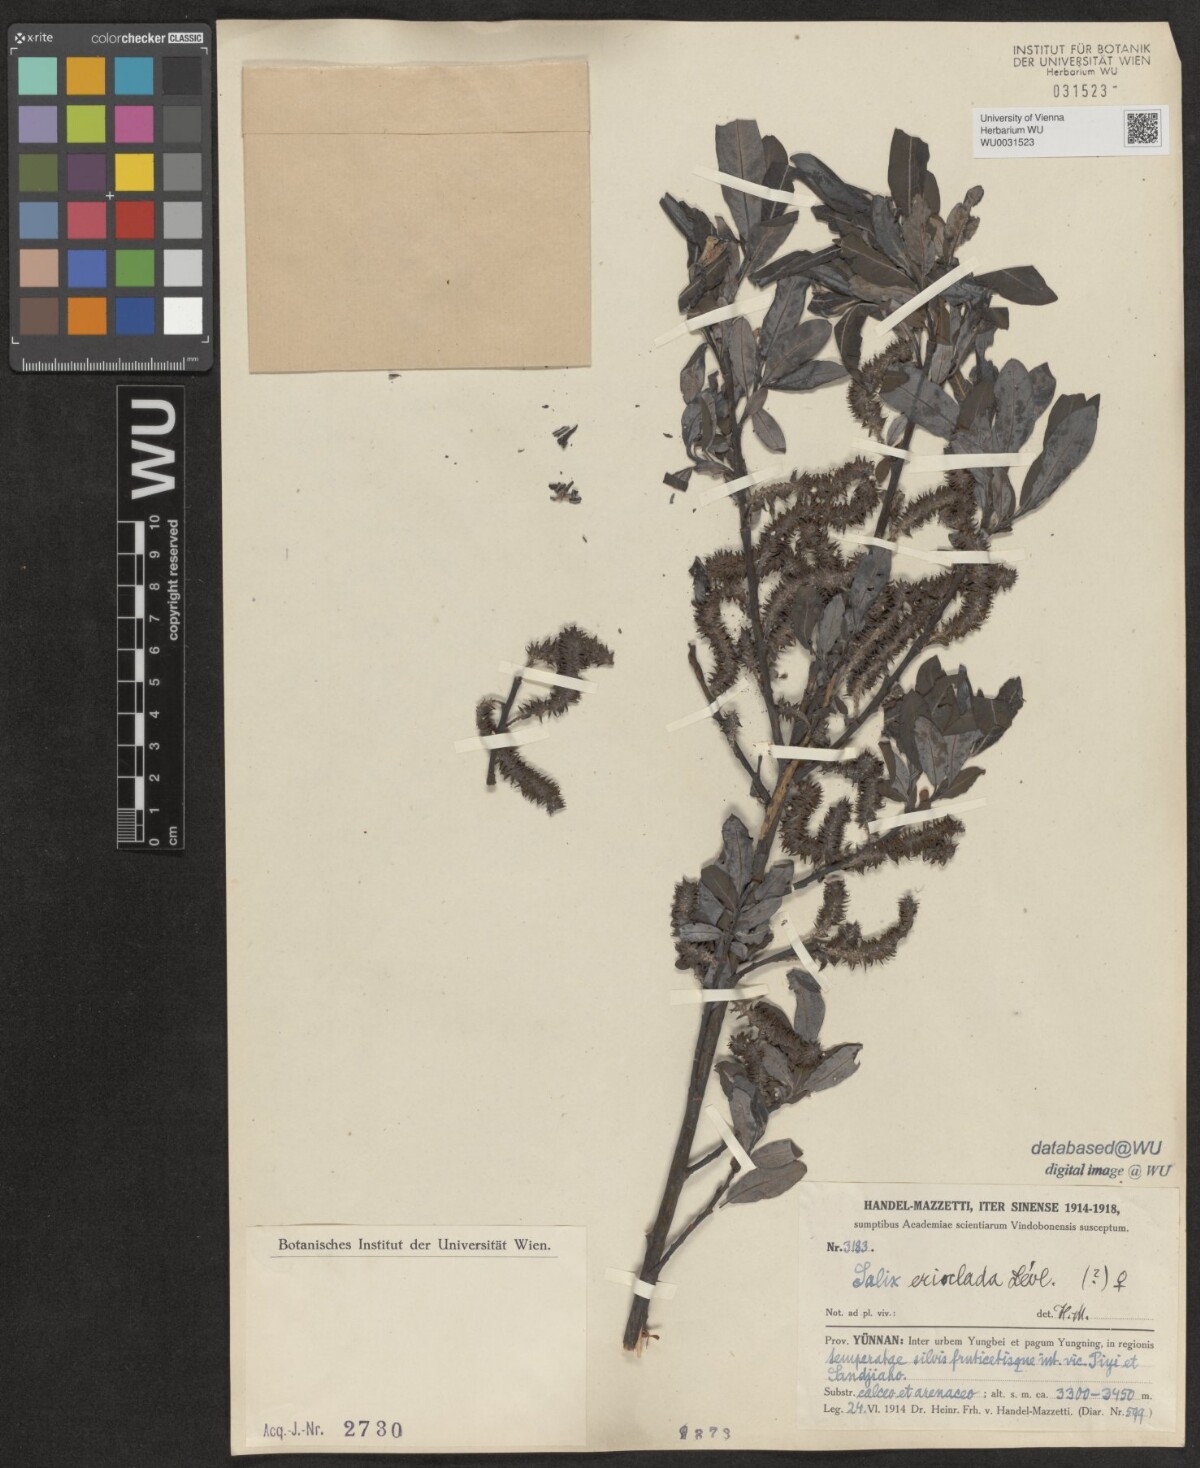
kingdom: Plantae
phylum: Tracheophyta
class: Magnoliopsida
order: Malpighiales
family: Salicaceae
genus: Salix
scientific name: Salix erioclada
